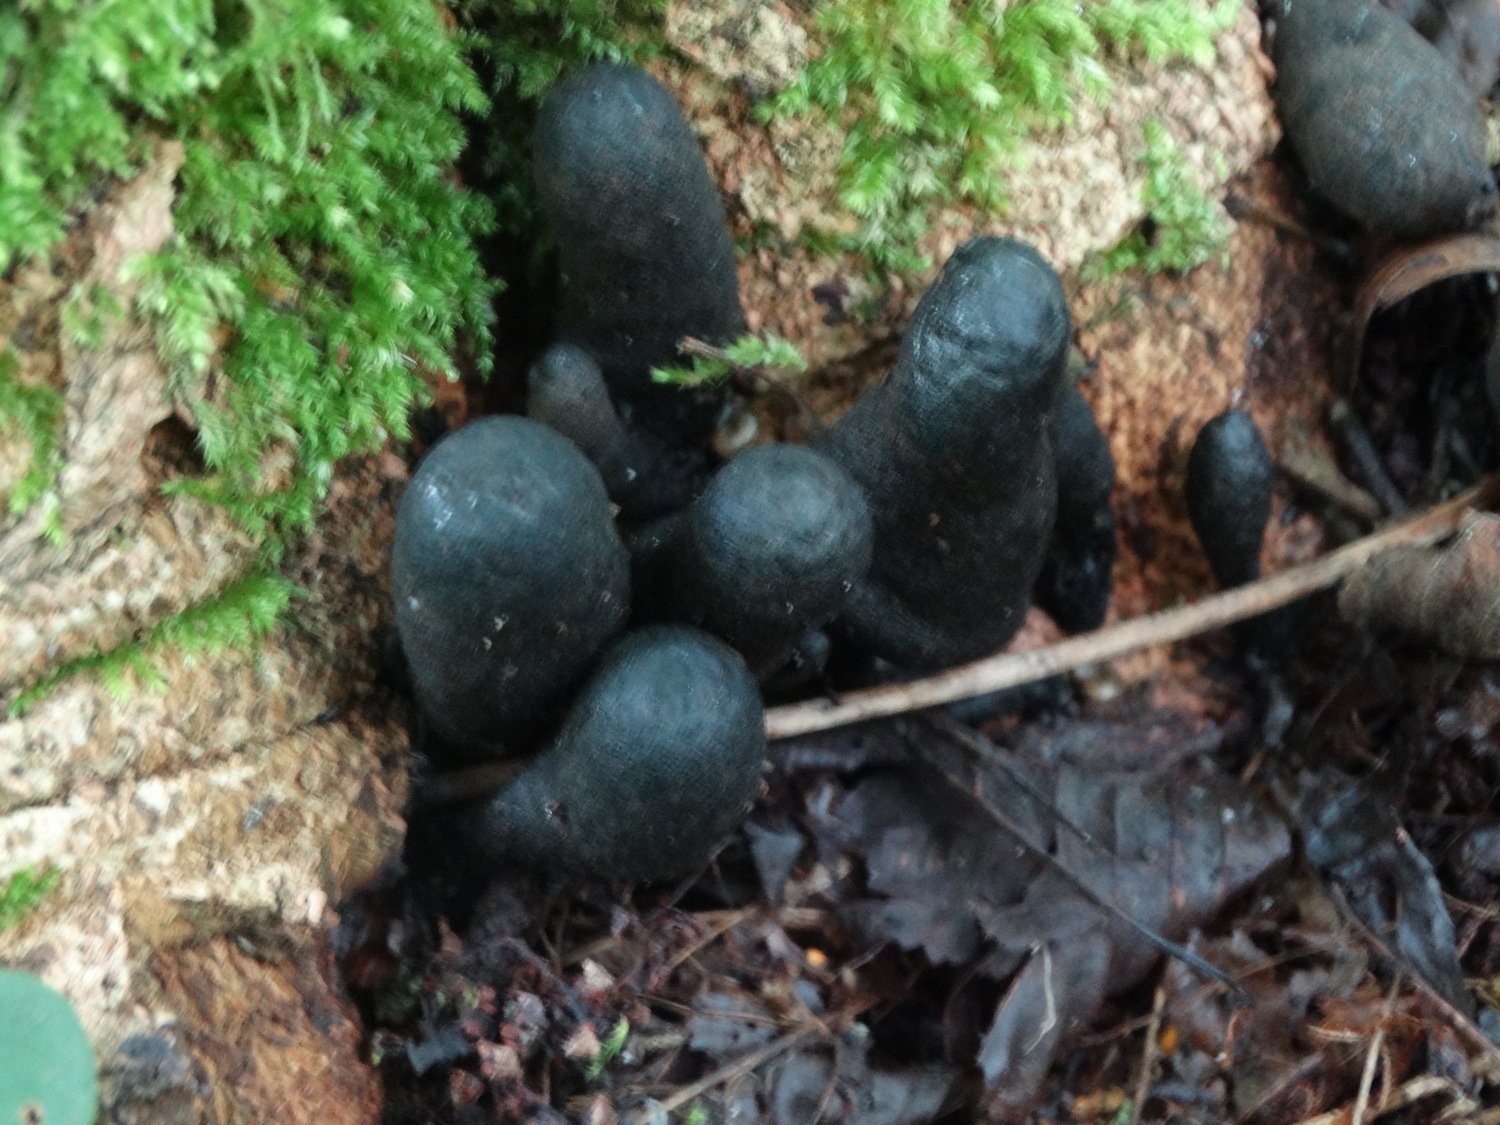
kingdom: Fungi
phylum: Ascomycota
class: Sordariomycetes
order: Xylariales
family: Xylariaceae
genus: Xylaria
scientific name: Xylaria polymorpha
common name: kølle-stødsvamp
